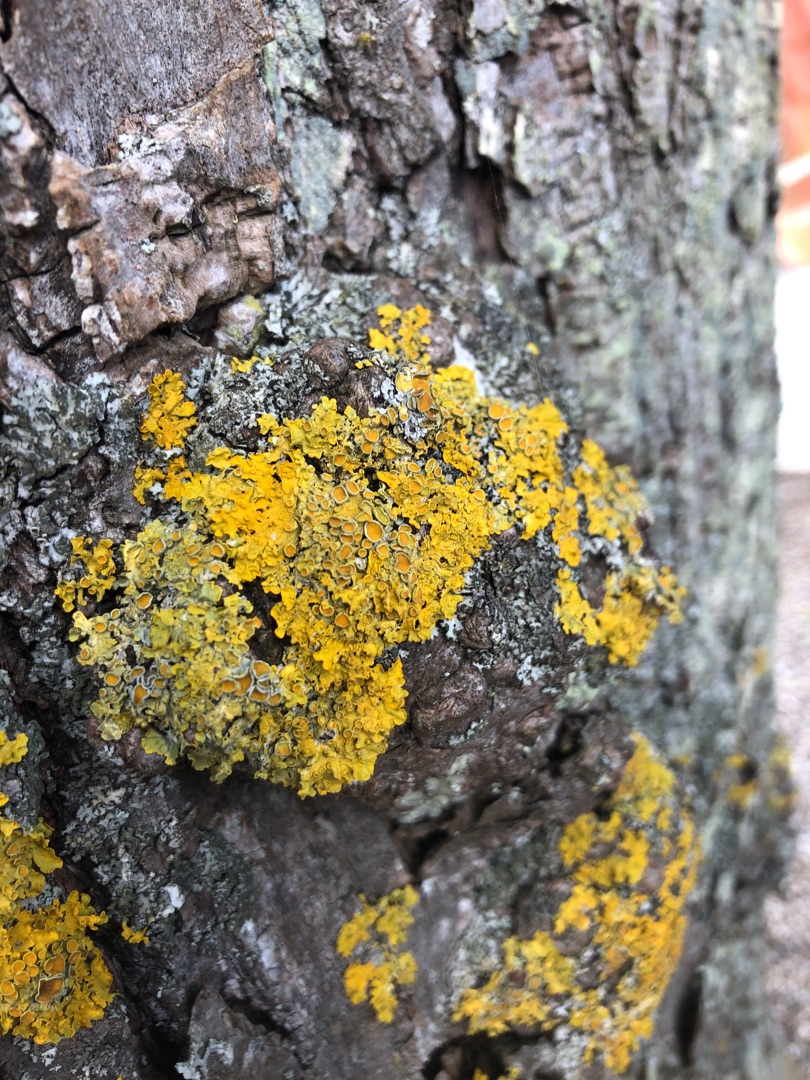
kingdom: Fungi
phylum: Ascomycota
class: Lecanoromycetes
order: Teloschistales
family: Teloschistaceae
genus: Xanthoria
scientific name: Xanthoria parietina
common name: Almindelig væggelav
